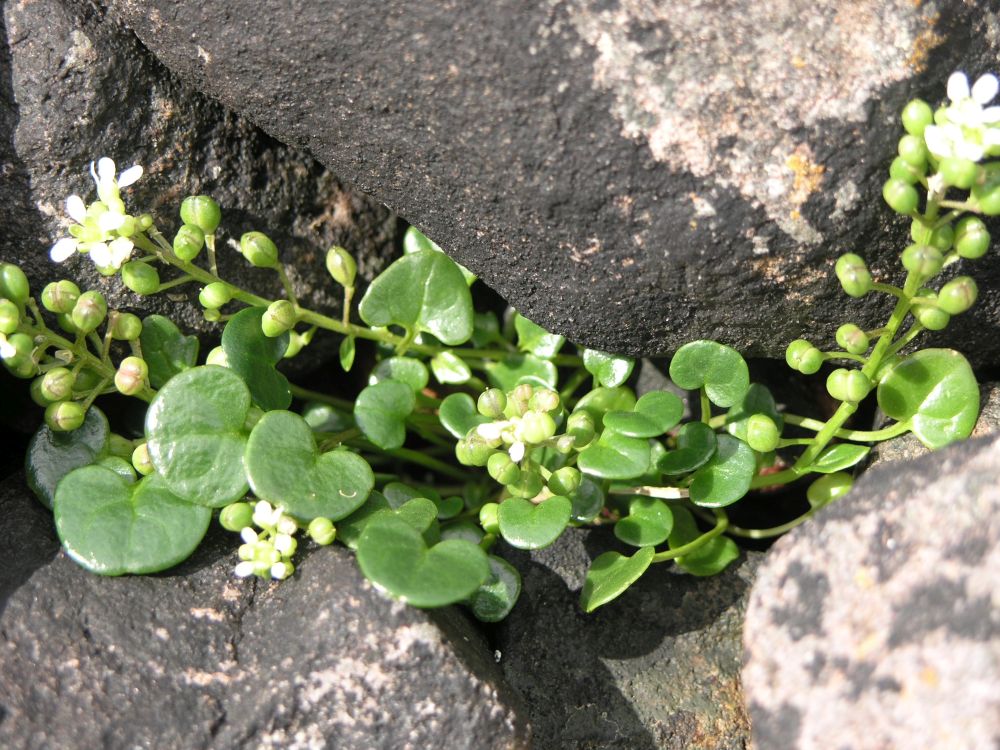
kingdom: Plantae
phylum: Tracheophyta
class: Magnoliopsida
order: Brassicales
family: Brassicaceae
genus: Cochlearia
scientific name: Cochlearia danica
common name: Early scurvygrass
